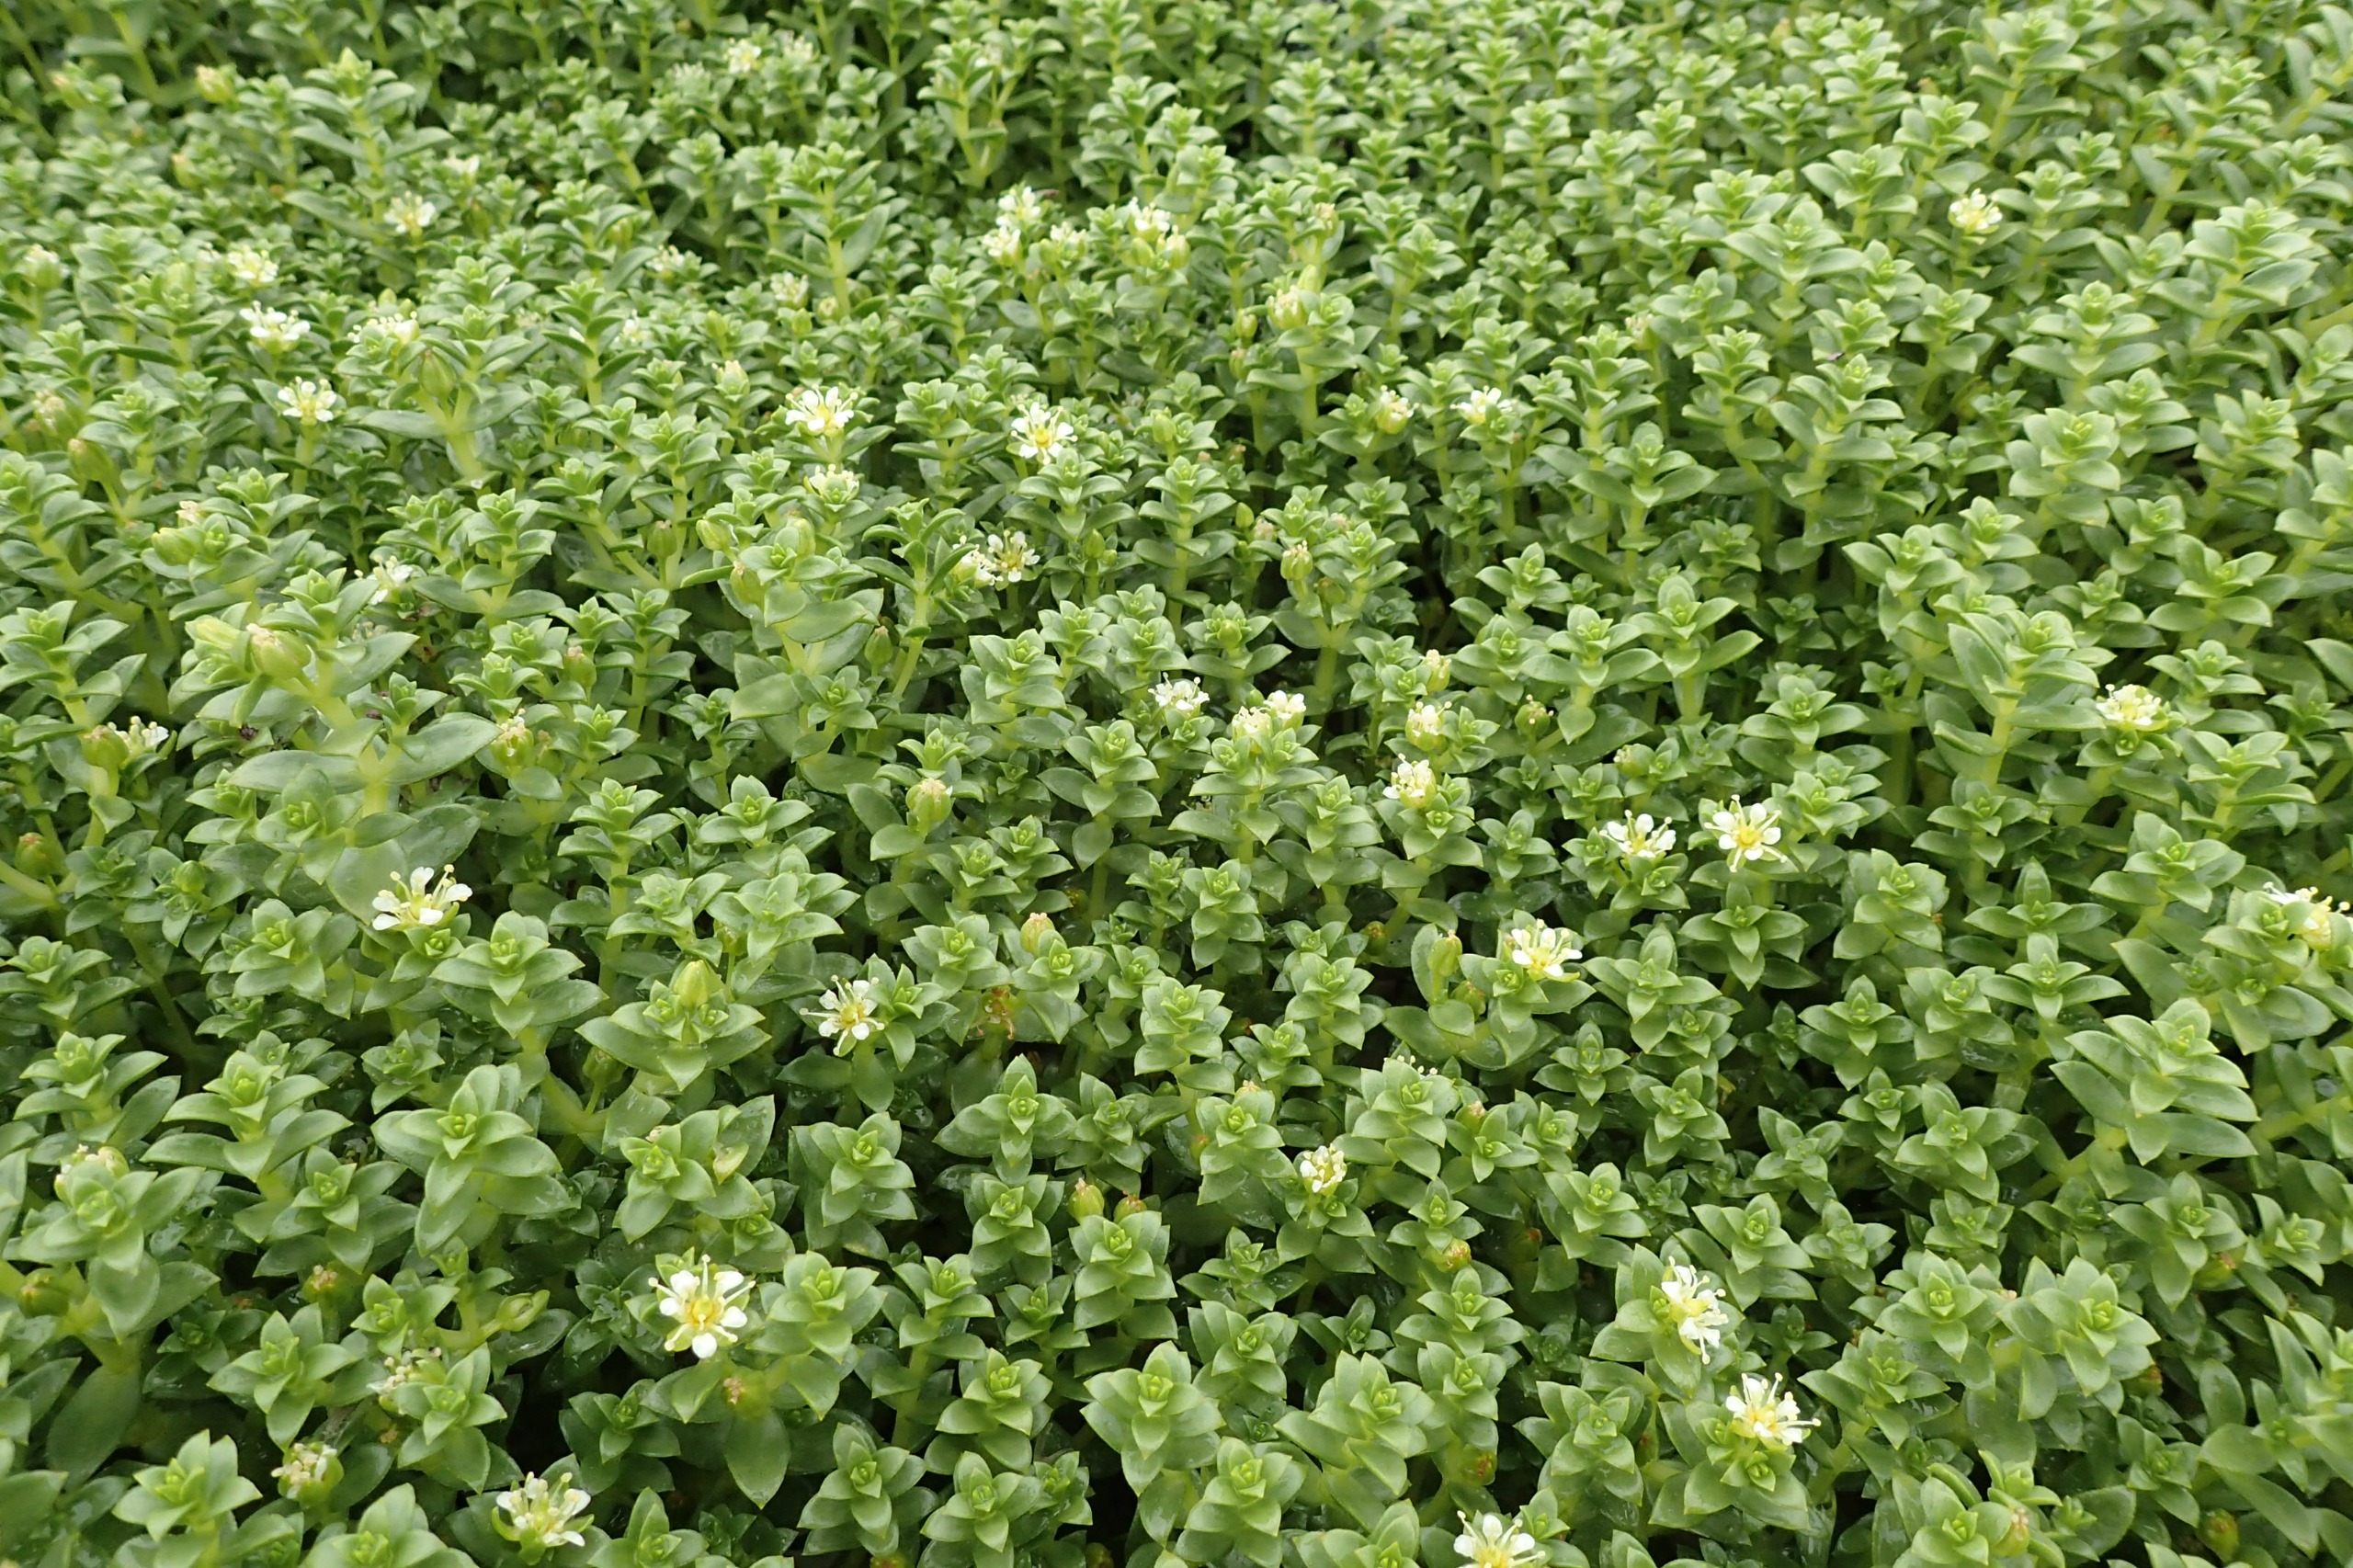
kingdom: Plantae
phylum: Tracheophyta
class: Magnoliopsida
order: Caryophyllales
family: Caryophyllaceae
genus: Honckenya
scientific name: Honckenya peploides
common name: Strandarve
